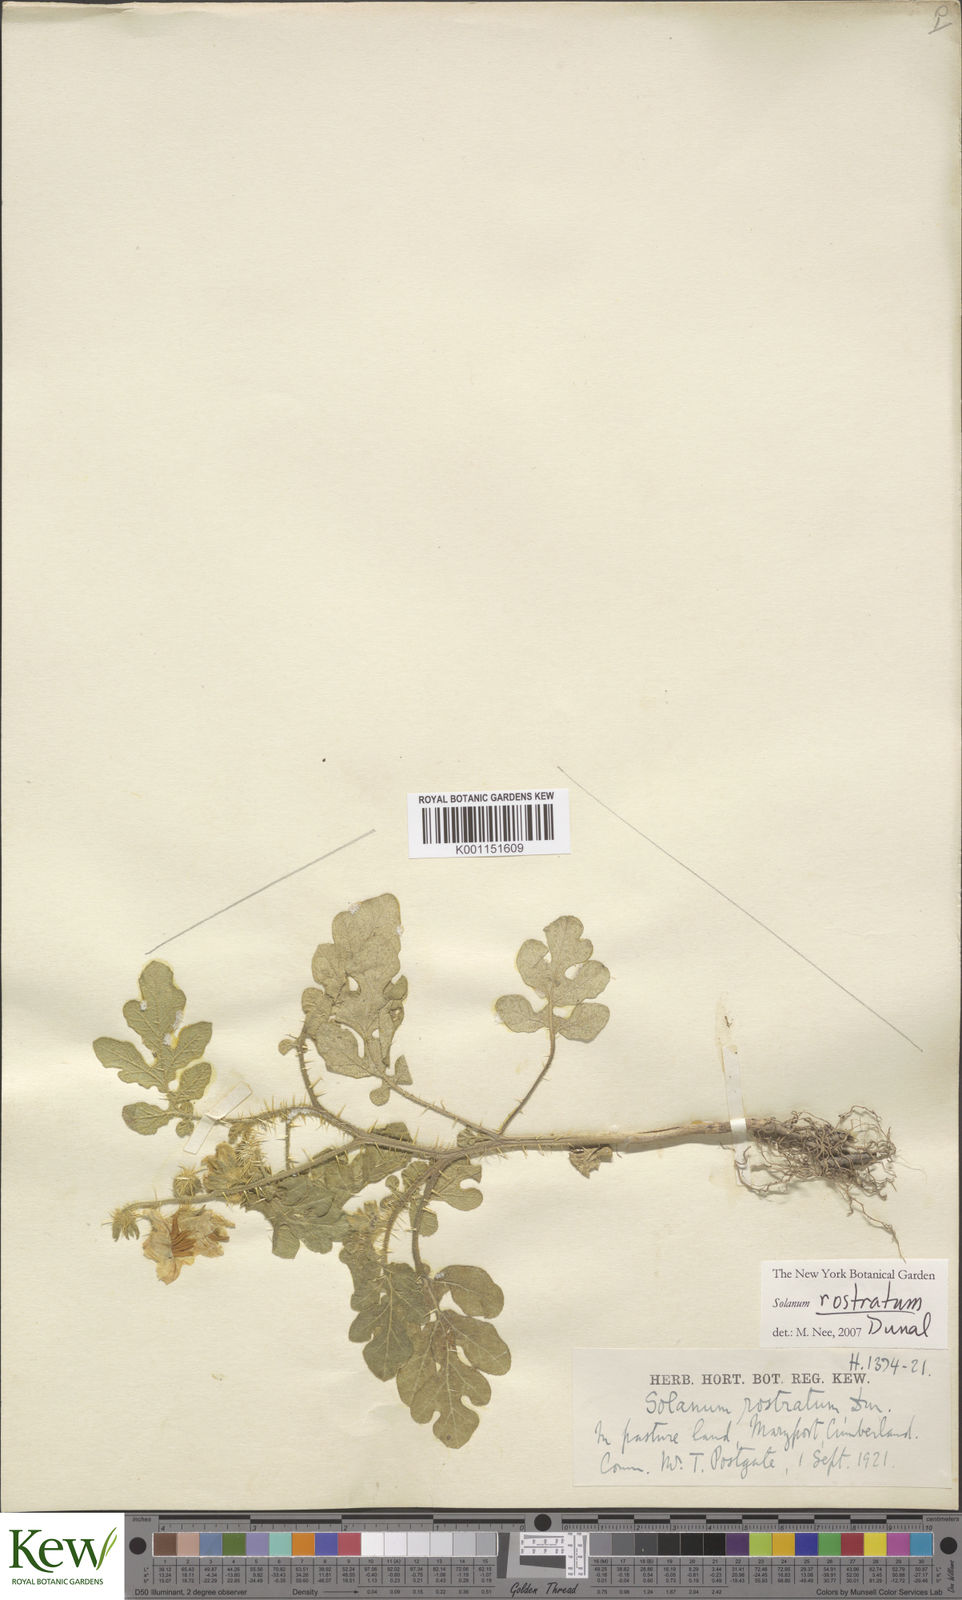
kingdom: Plantae
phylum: Tracheophyta
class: Magnoliopsida
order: Solanales
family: Solanaceae
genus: Solanum
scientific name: Solanum angustifolium
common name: Buffalobur nightshade
